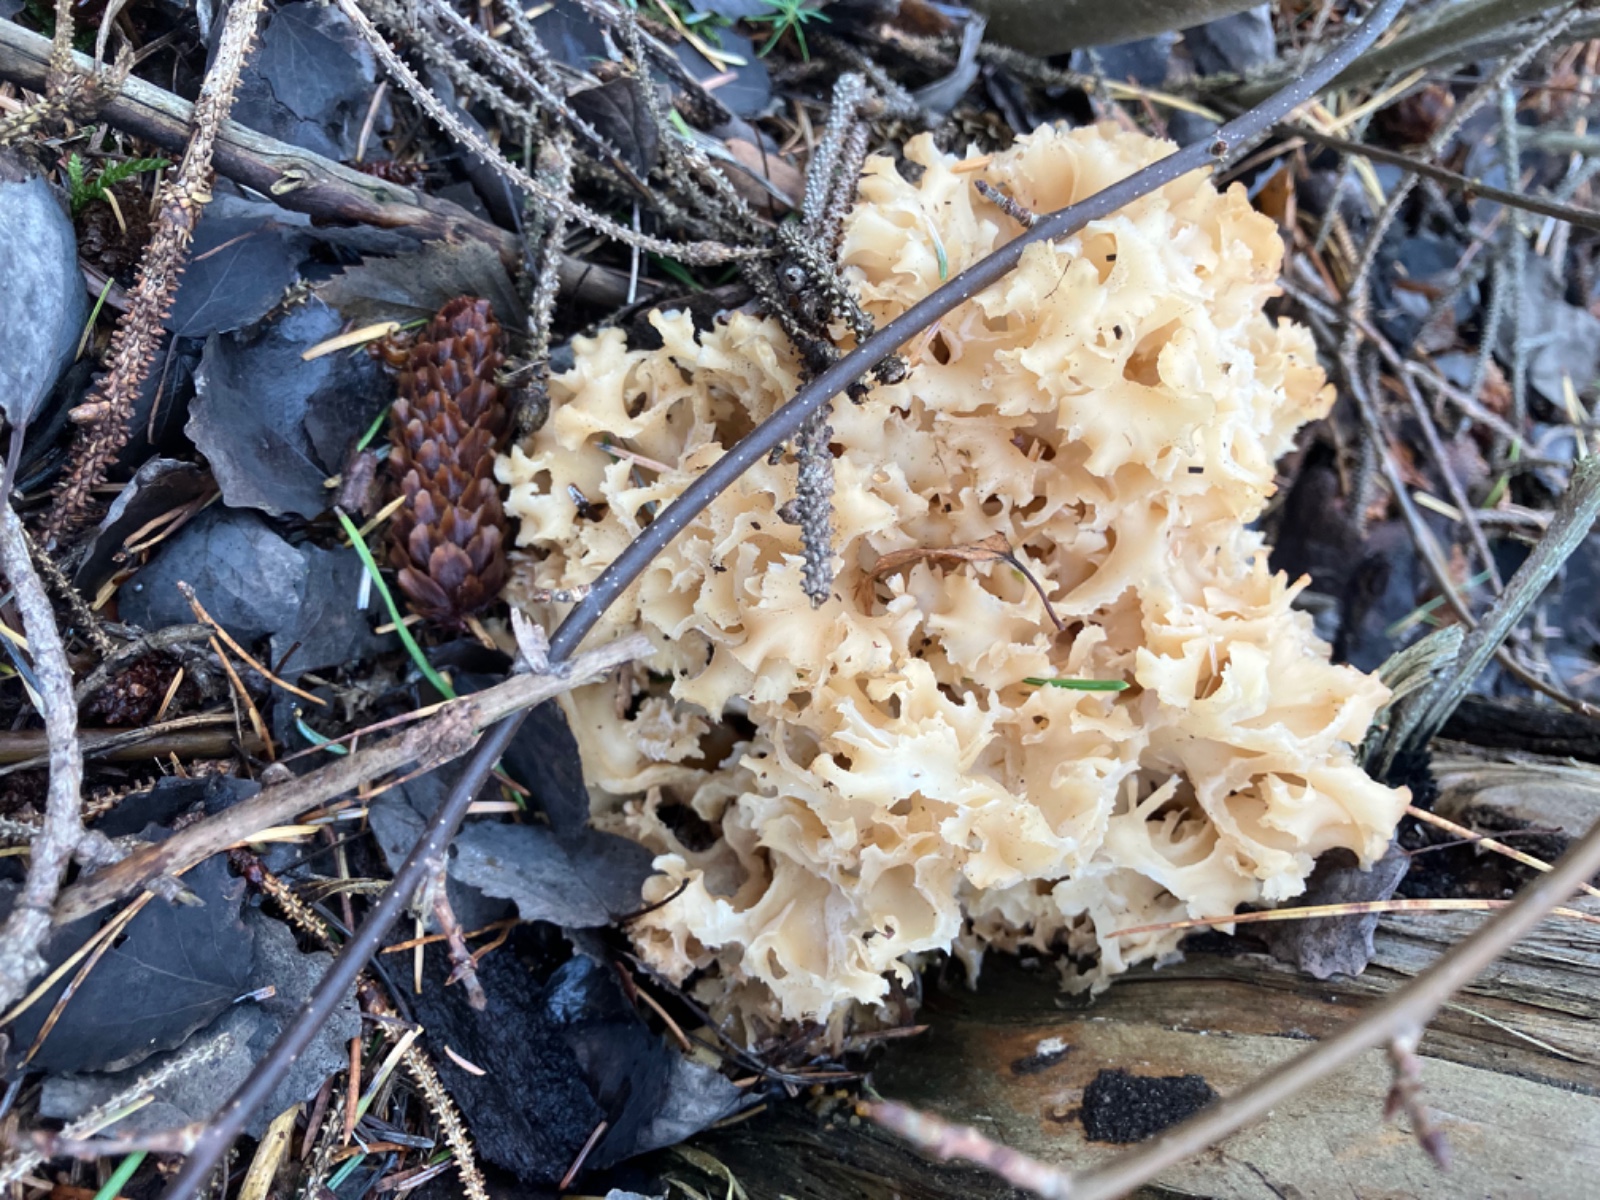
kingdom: Fungi
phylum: Basidiomycota
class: Agaricomycetes
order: Polyporales
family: Sparassidaceae
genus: Sparassis
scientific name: Sparassis crispa
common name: kruset blomkålssvamp
